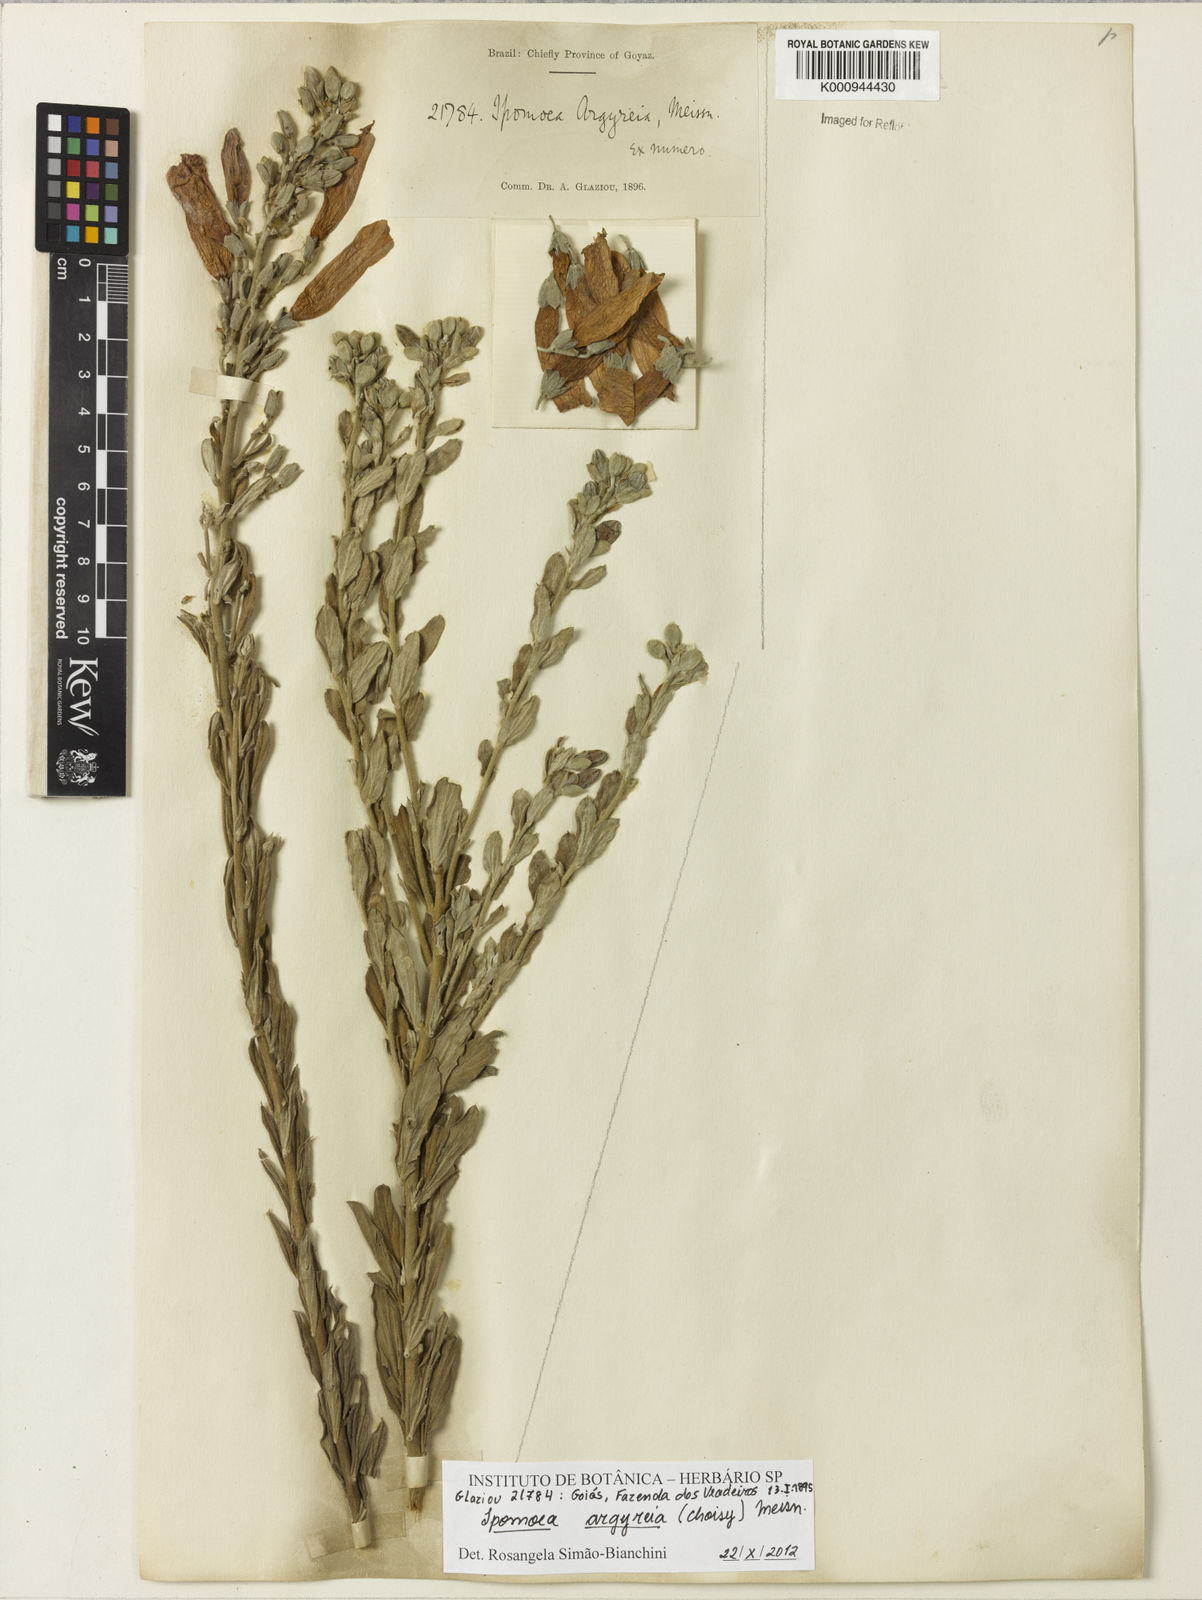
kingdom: Plantae
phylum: Tracheophyta
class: Magnoliopsida
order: Solanales
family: Convolvulaceae
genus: Ipomoea
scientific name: Ipomoea argyreia
